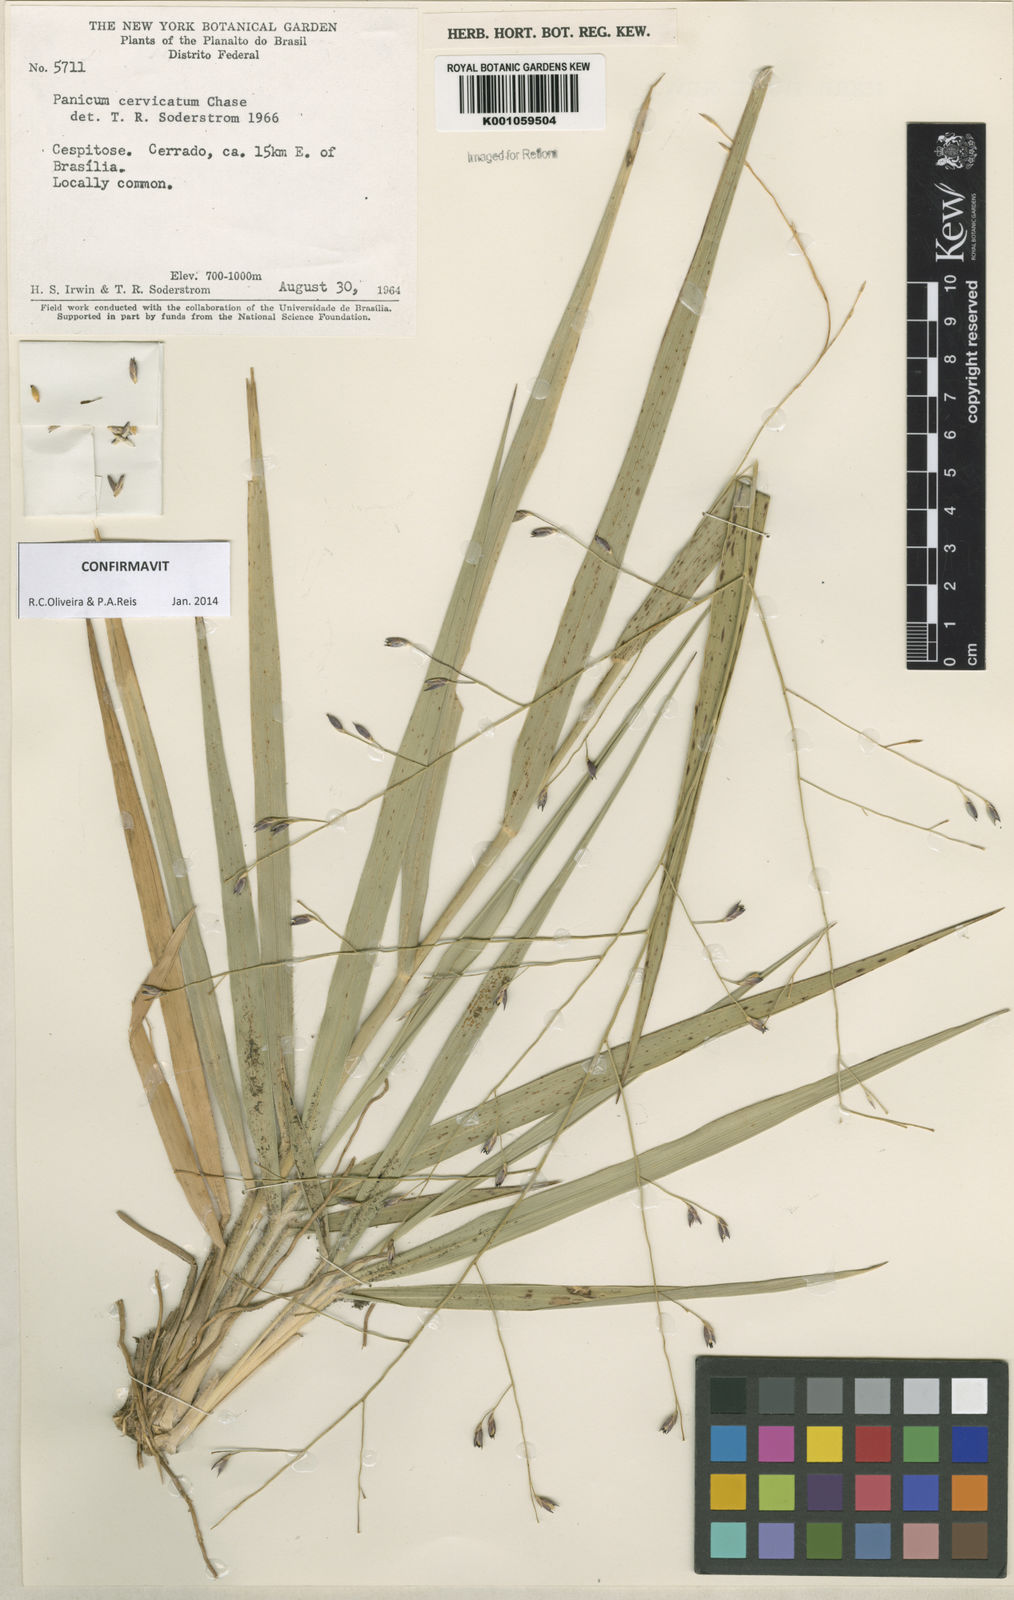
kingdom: Plantae
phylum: Tracheophyta
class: Liliopsida
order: Poales
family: Poaceae
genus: Panicum
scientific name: Panicum cervicatum
